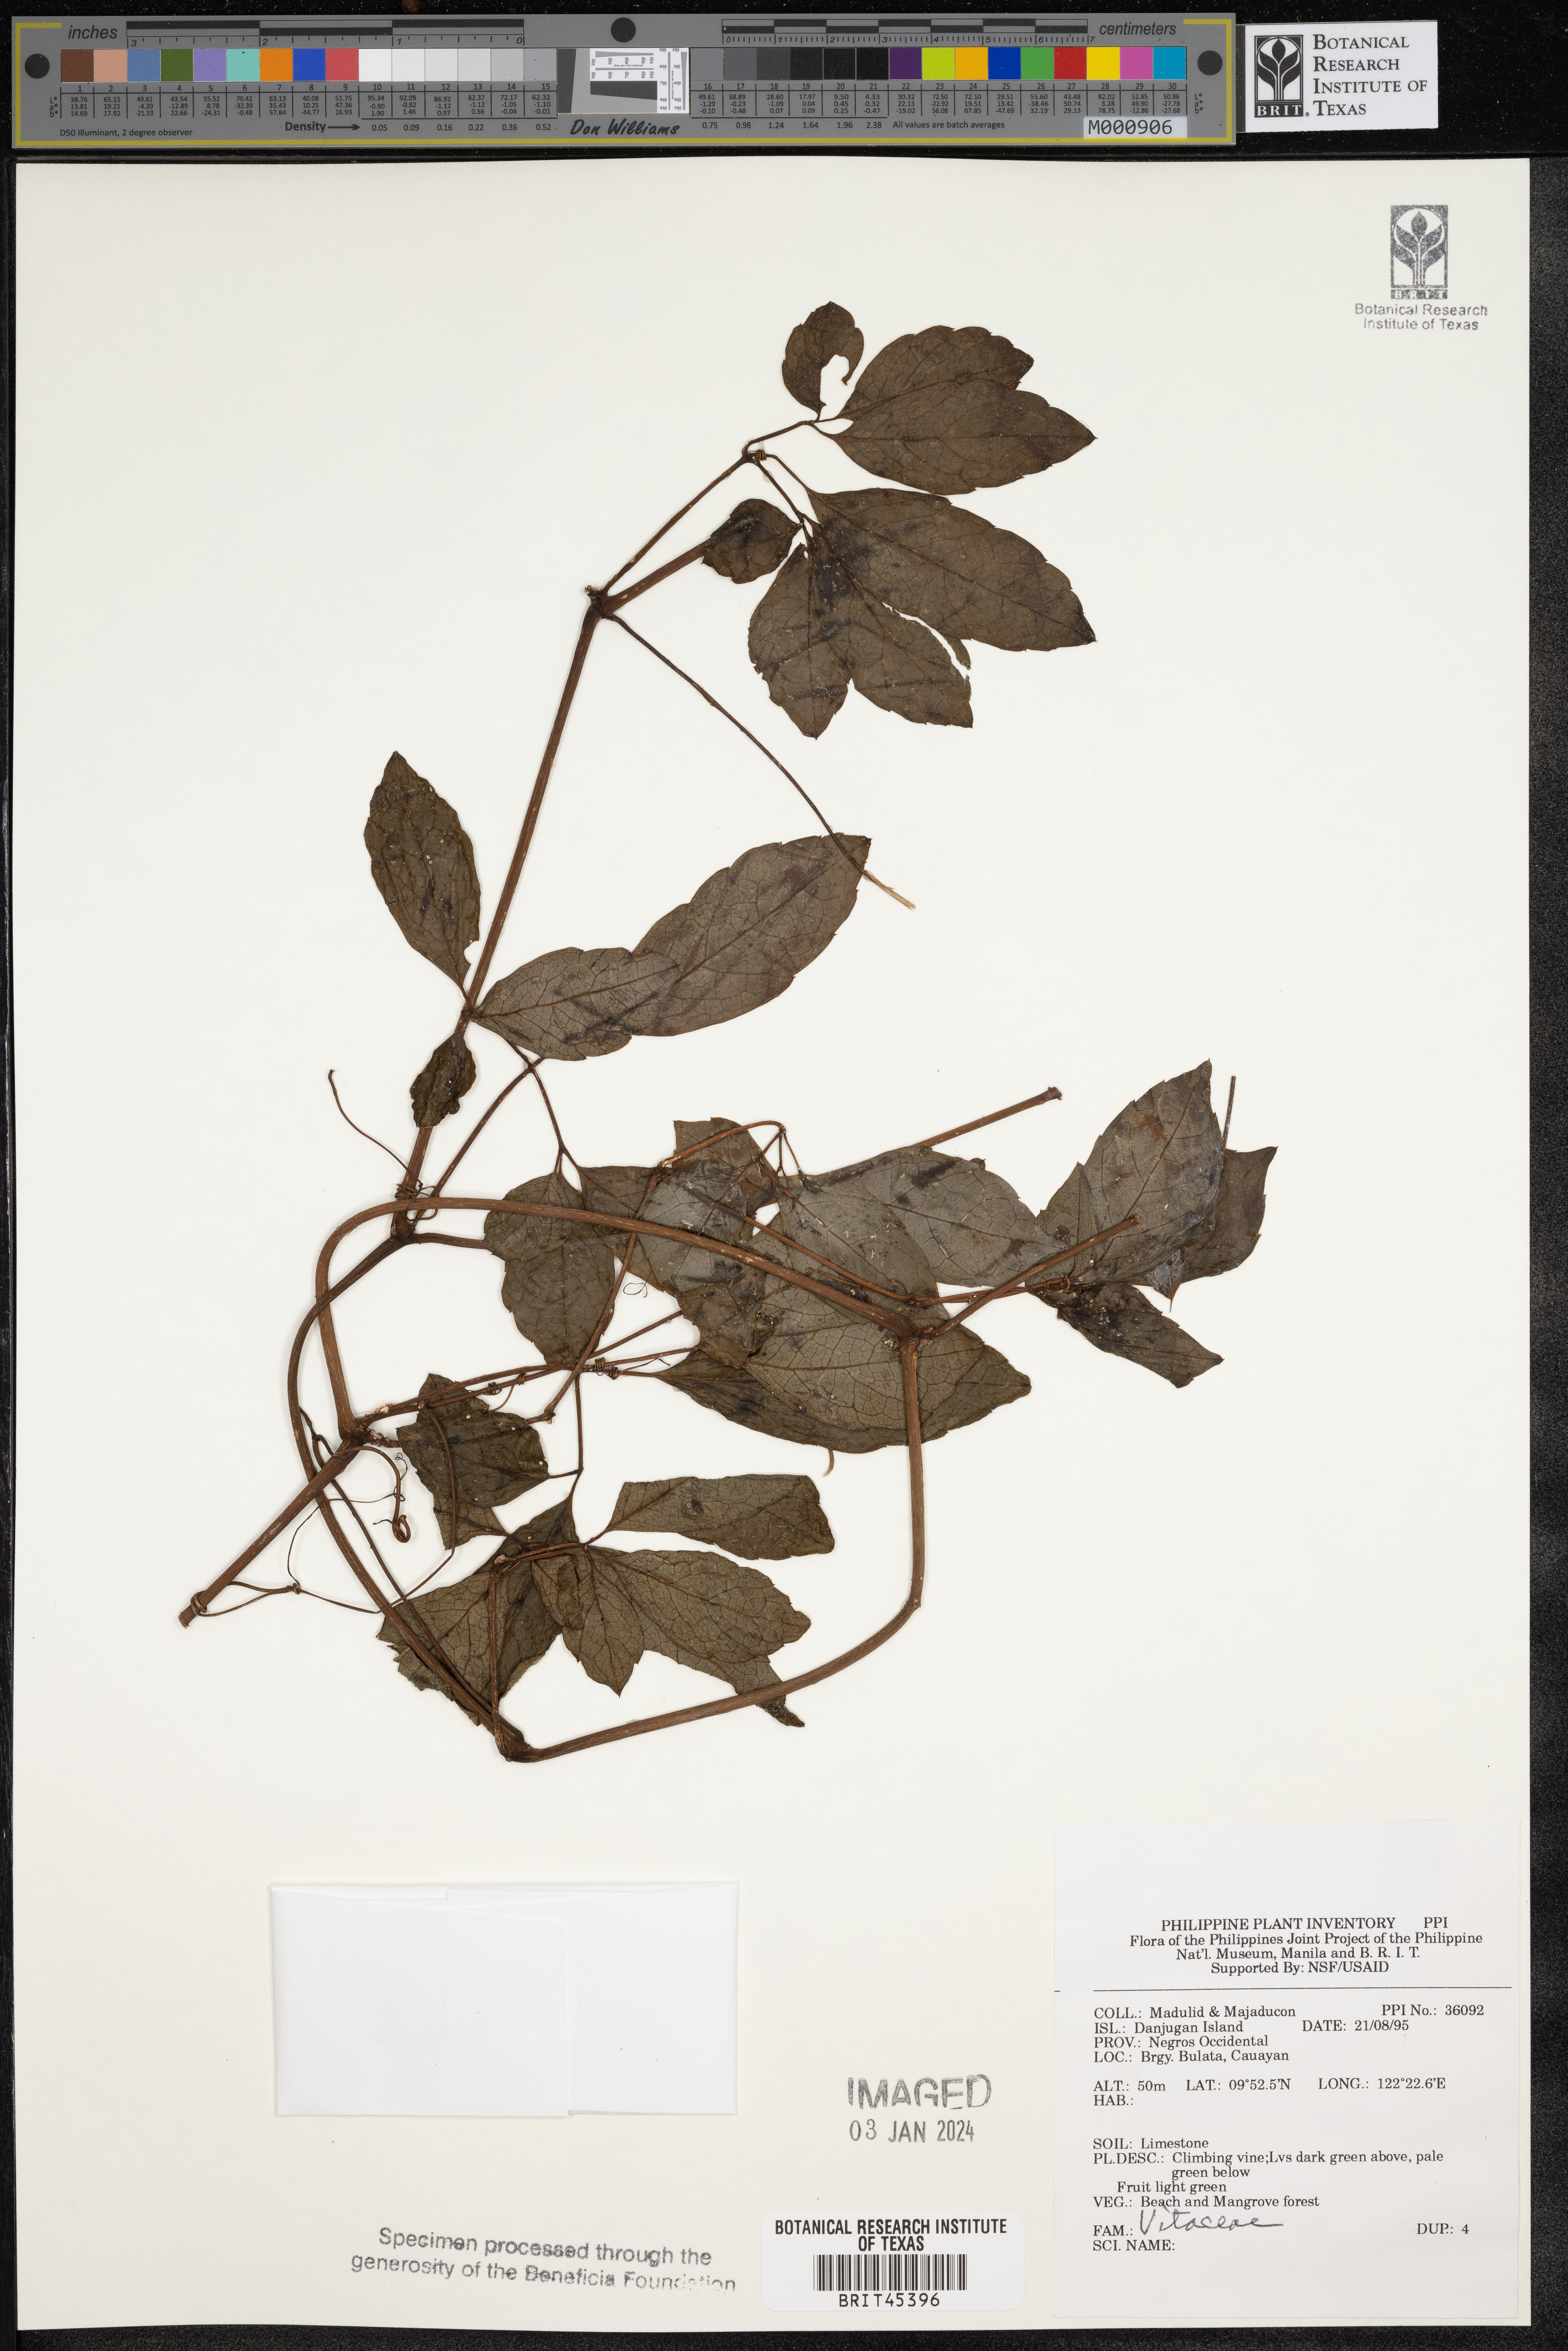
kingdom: Plantae
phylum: Tracheophyta
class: Magnoliopsida
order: Vitales
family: Vitaceae
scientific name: Vitaceae
